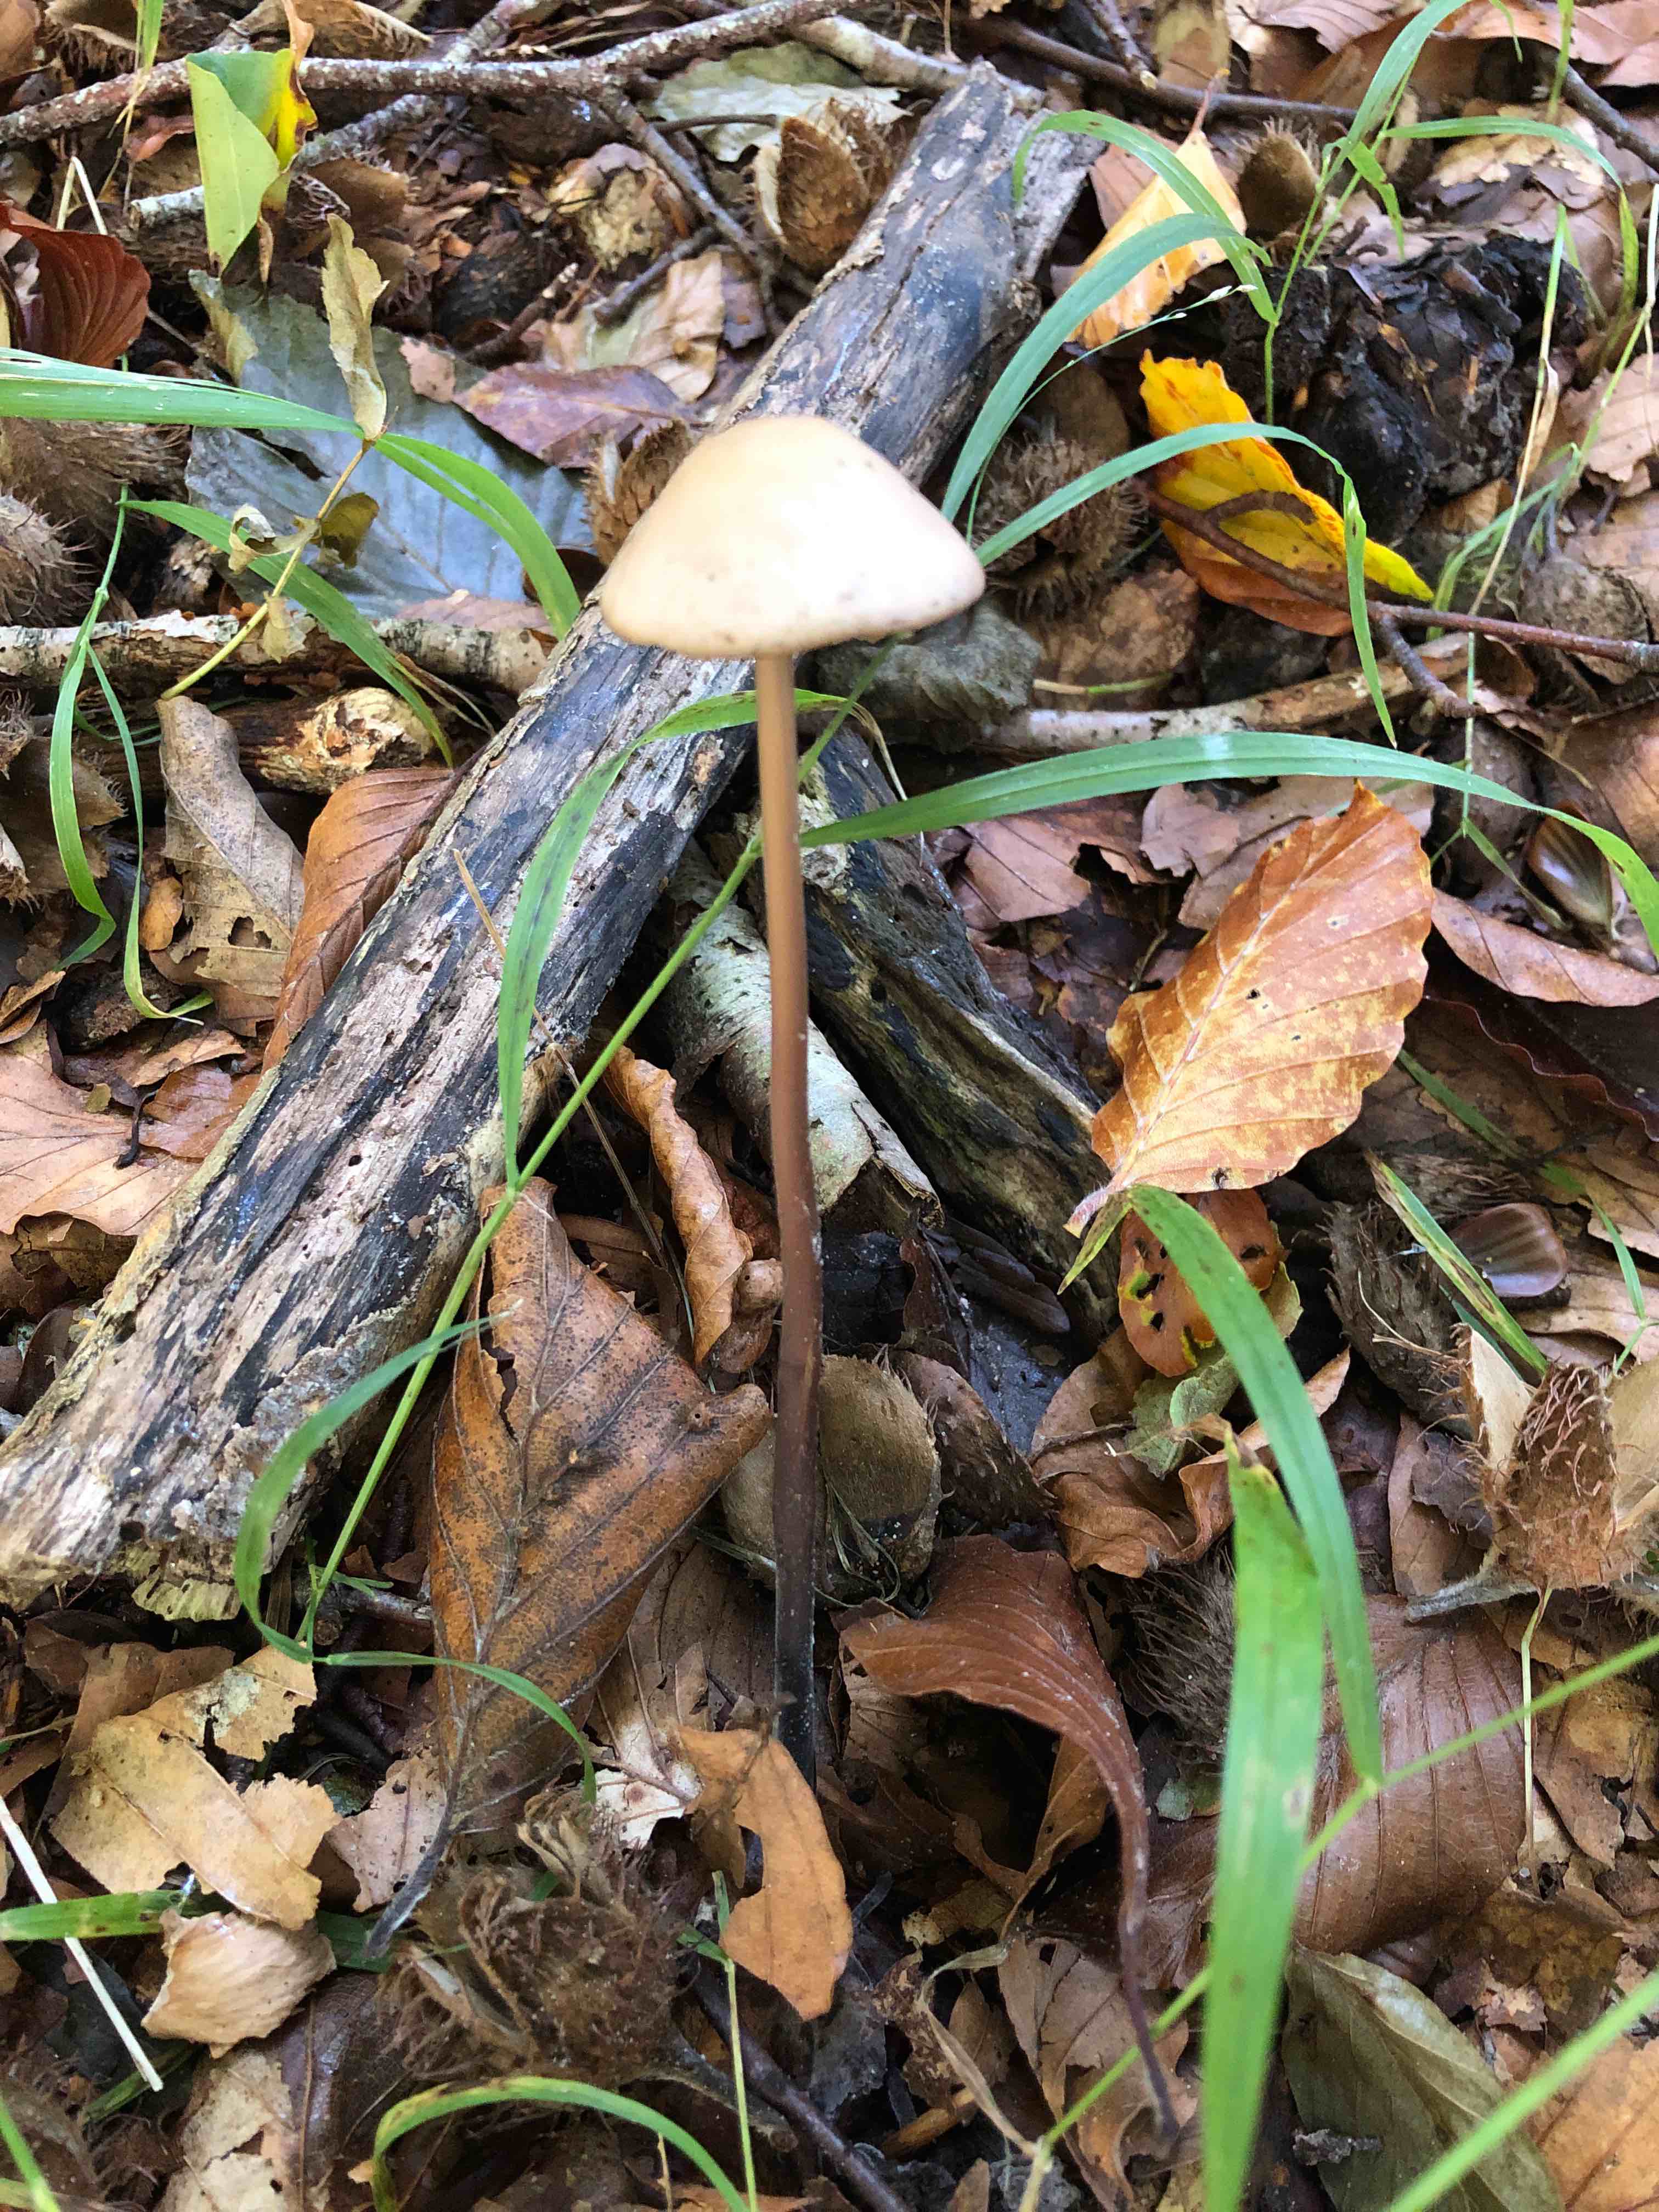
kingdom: Fungi
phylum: Basidiomycota
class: Agaricomycetes
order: Agaricales
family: Omphalotaceae
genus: Mycetinis
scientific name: Mycetinis alliaceus
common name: stor løghat
